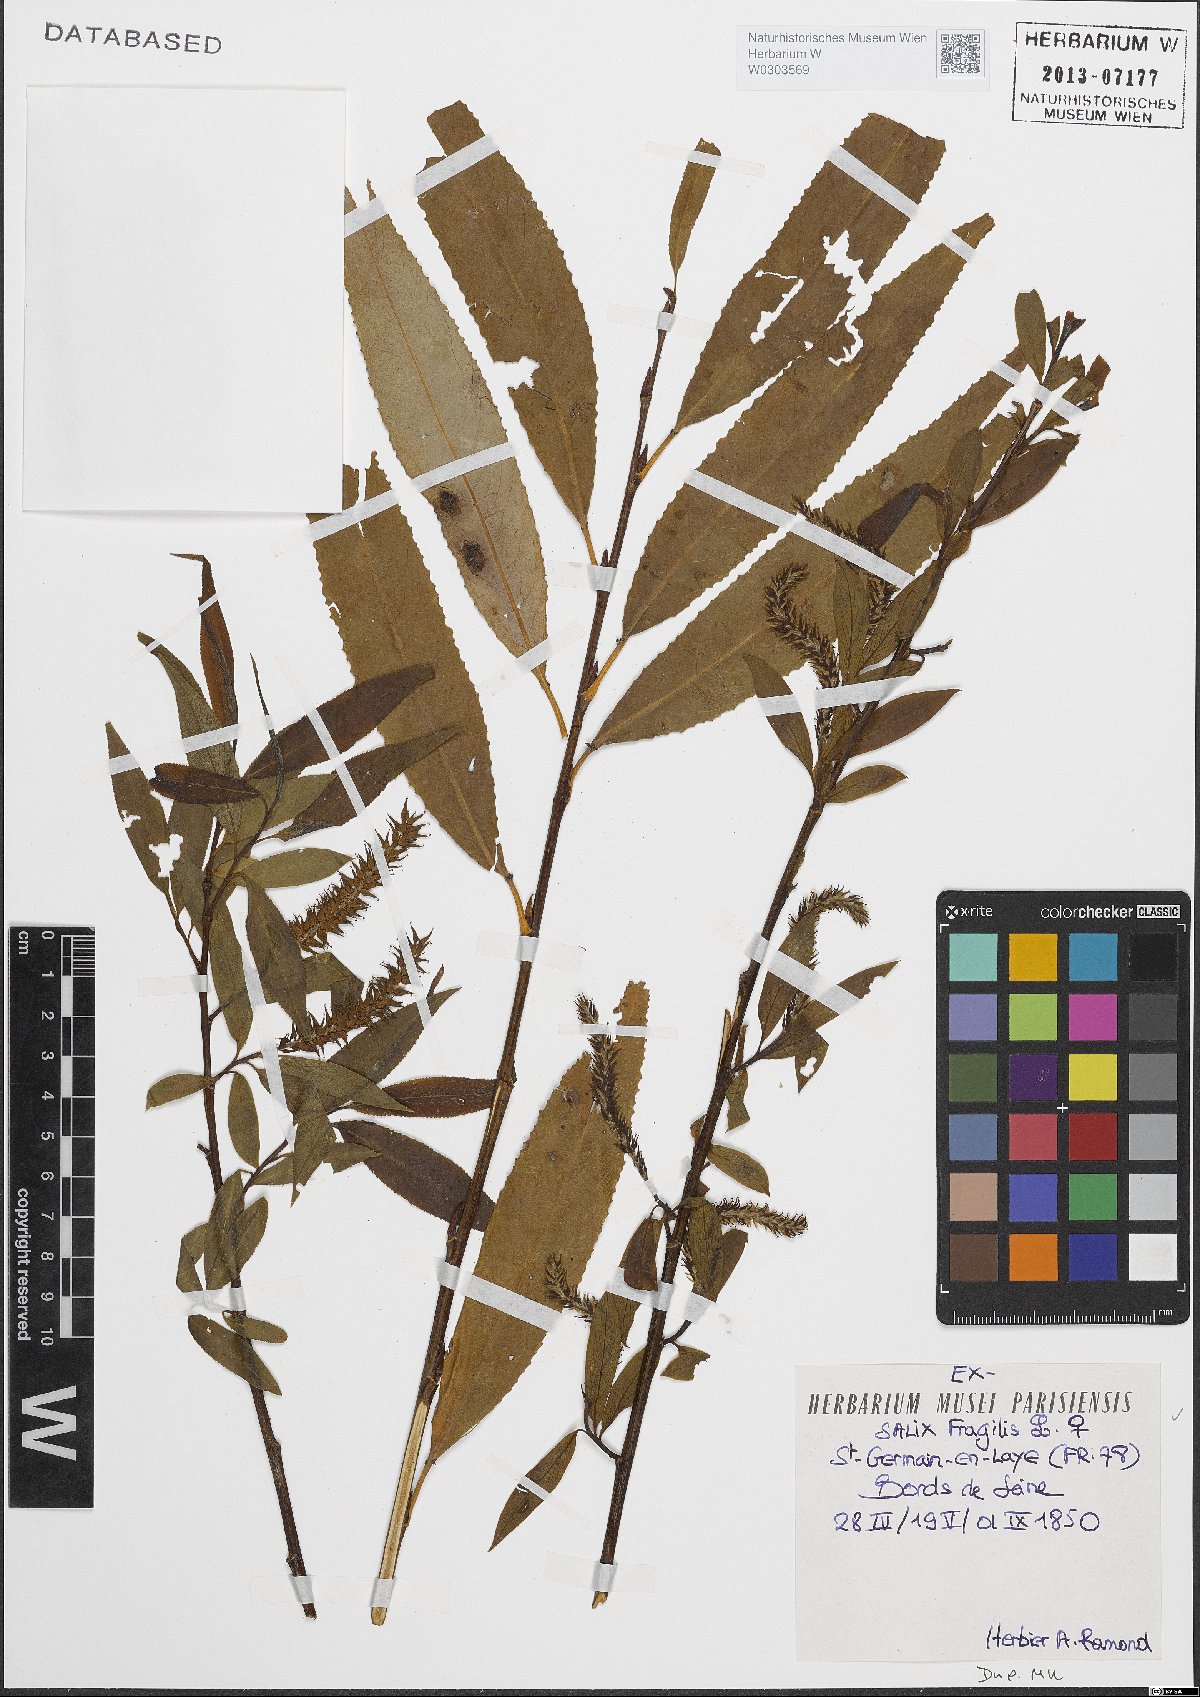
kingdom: Plantae
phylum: Tracheophyta
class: Magnoliopsida
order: Malpighiales
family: Salicaceae
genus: Salix
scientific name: Salix fragilis
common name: Crack willow
